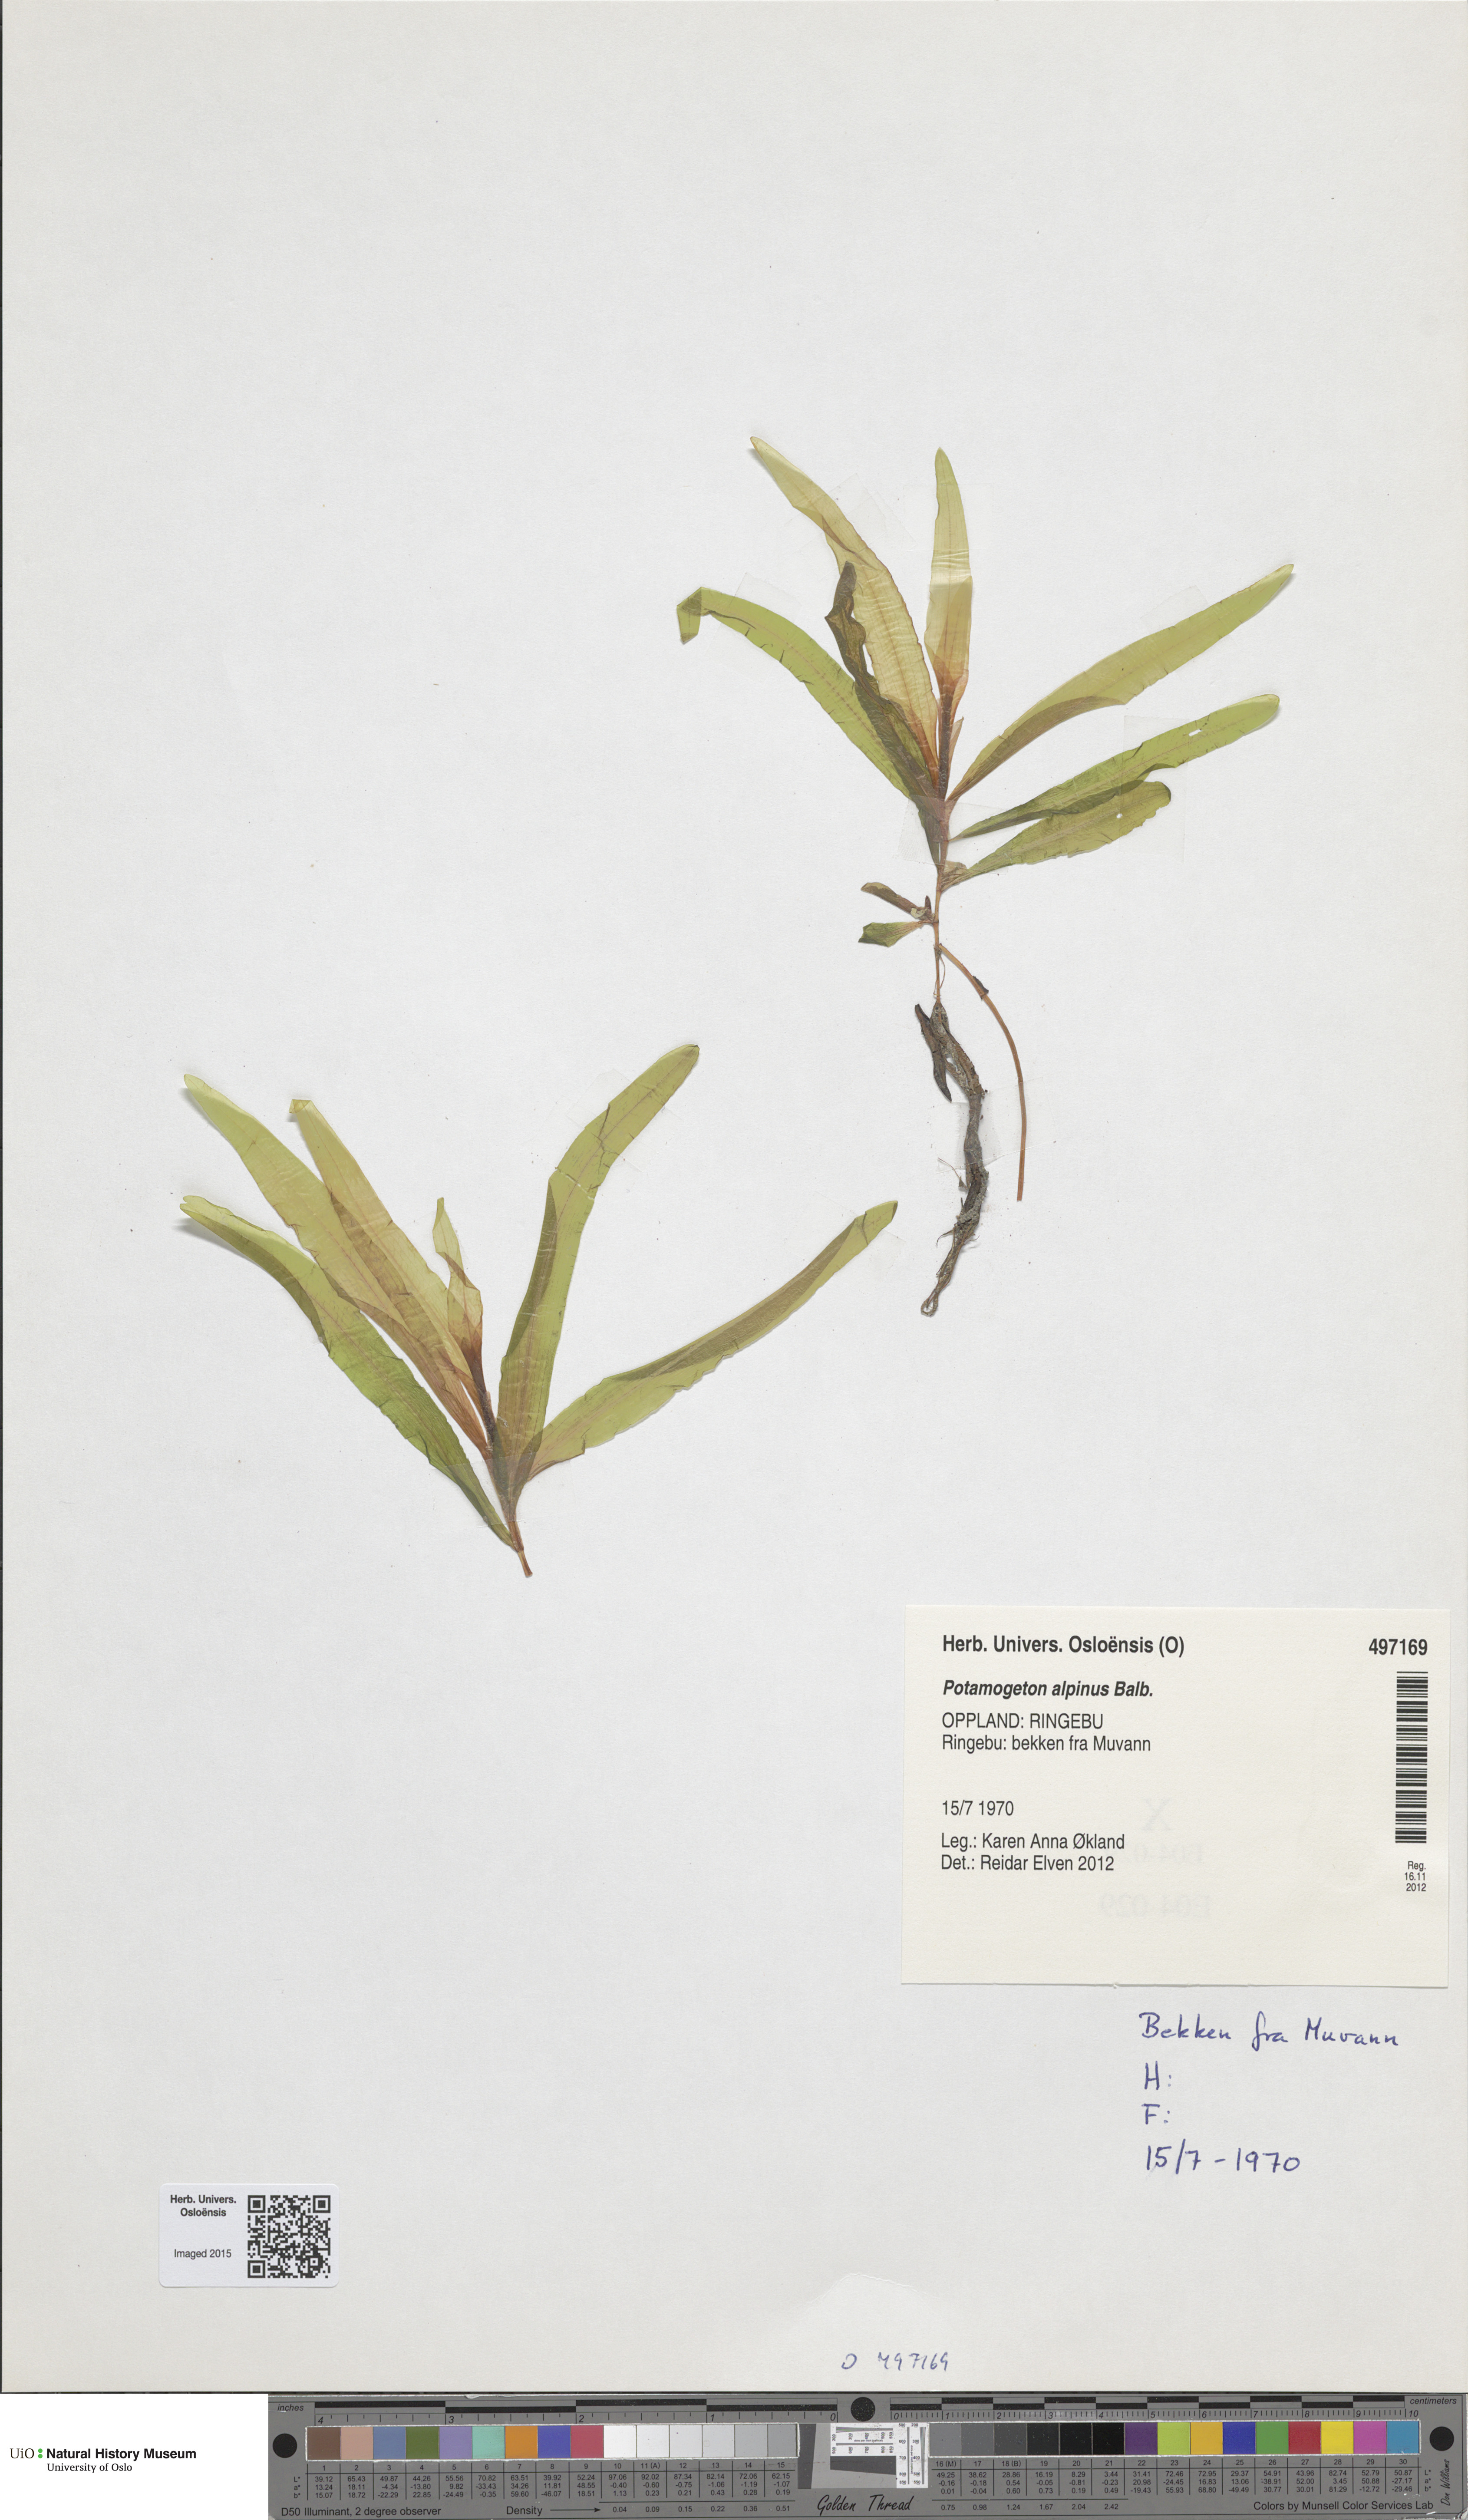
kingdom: Plantae
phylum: Tracheophyta
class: Liliopsida
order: Alismatales
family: Potamogetonaceae
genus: Potamogeton
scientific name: Potamogeton alpinus
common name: Red pondweed
